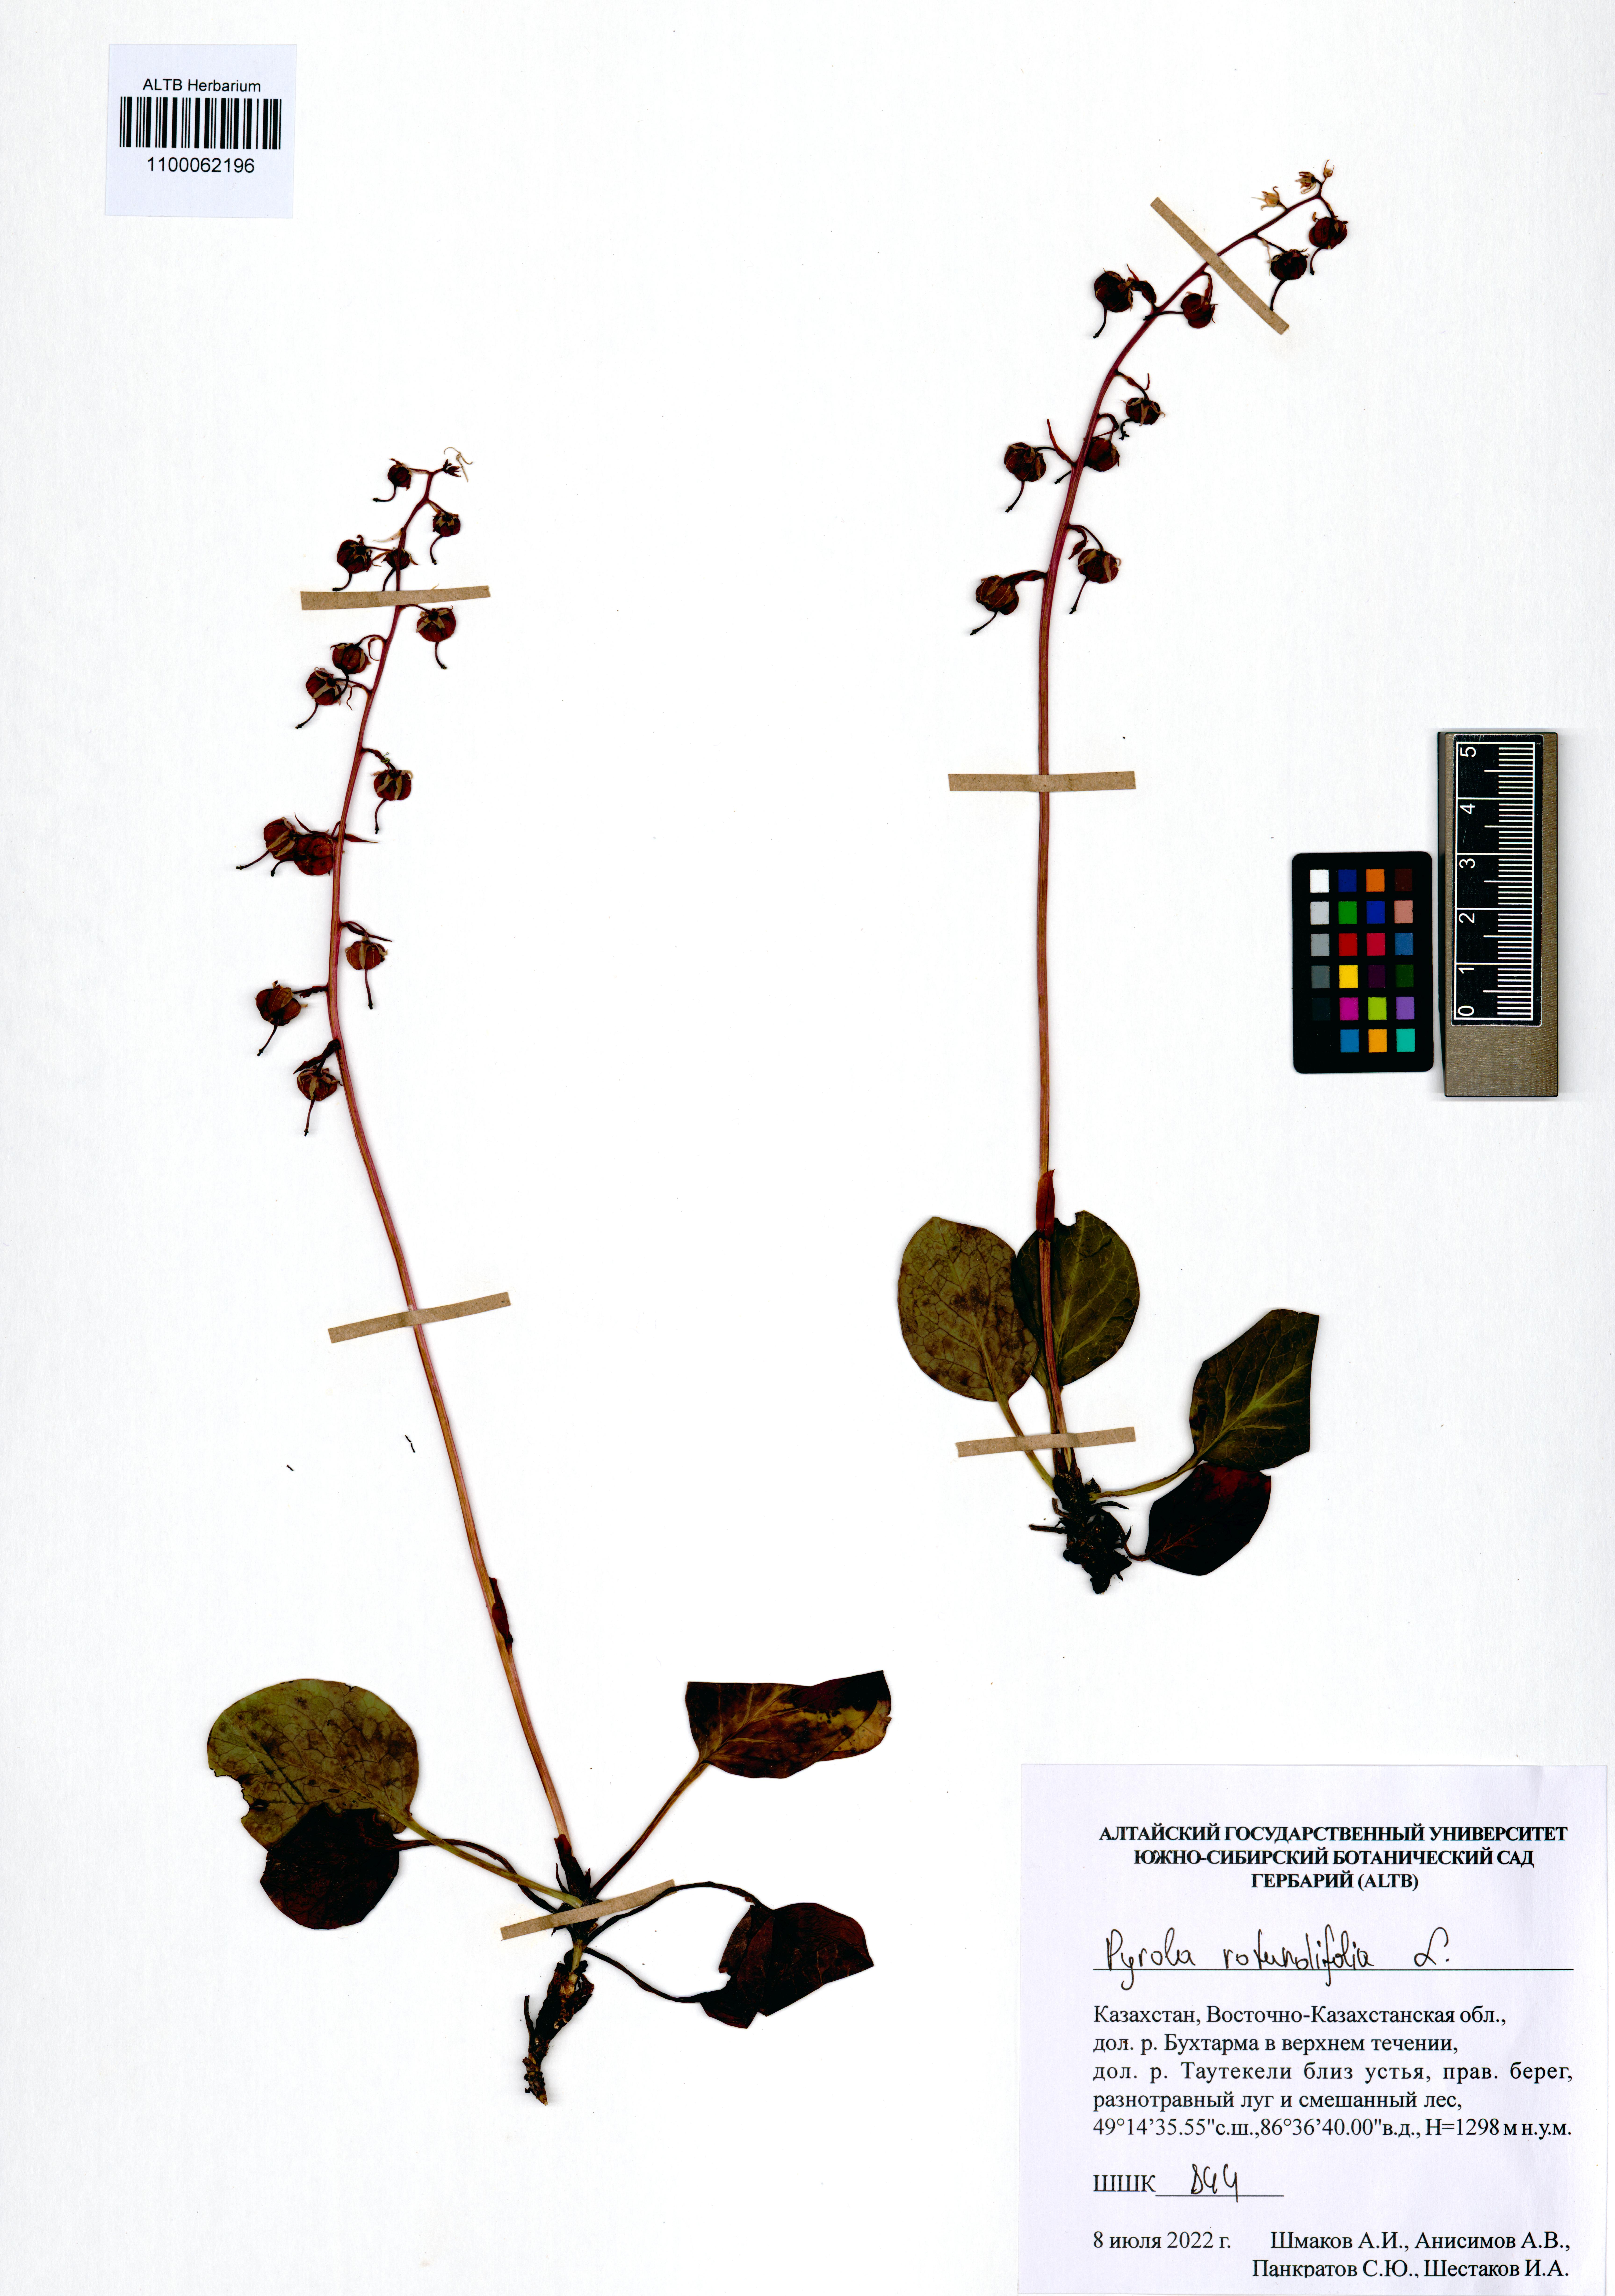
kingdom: Plantae
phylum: Tracheophyta
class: Magnoliopsida
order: Ericales
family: Ericaceae
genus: Pyrola
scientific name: Pyrola rotundifolia
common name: Round-leaved wintergreen
